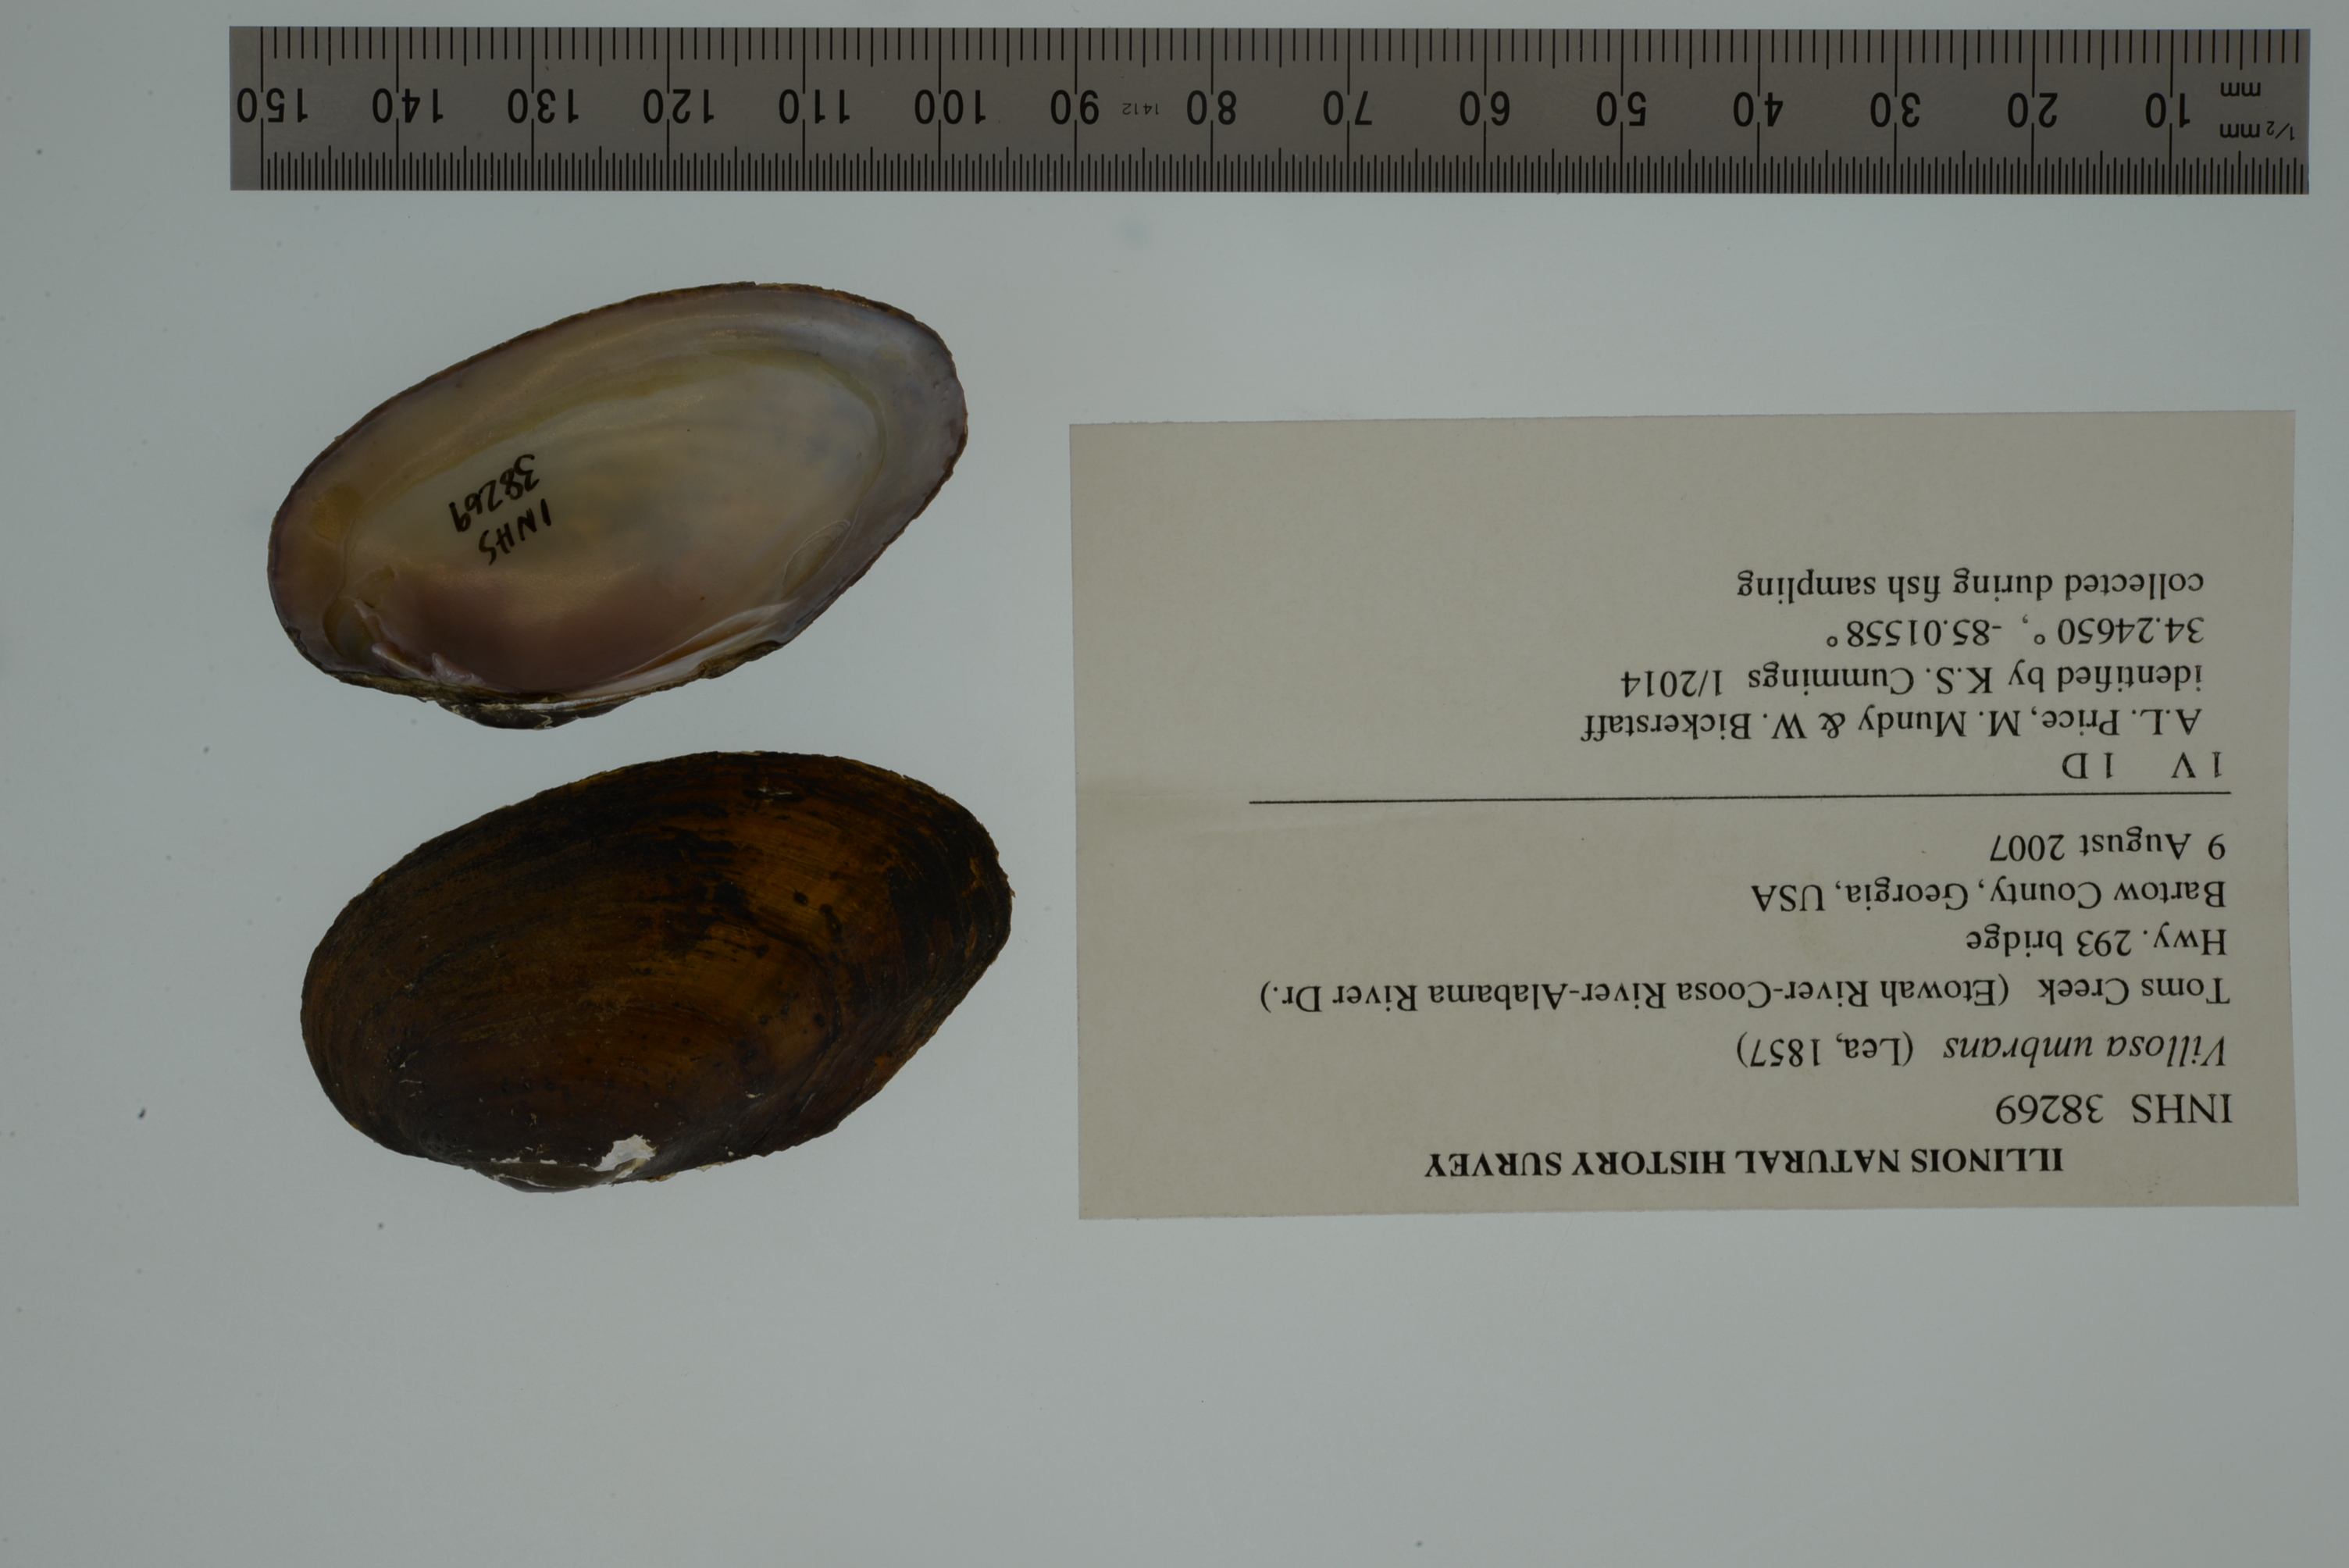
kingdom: Animalia
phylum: Mollusca
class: Bivalvia
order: Unionida
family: Unionidae
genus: Leaunio
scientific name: Leaunio umbrans
